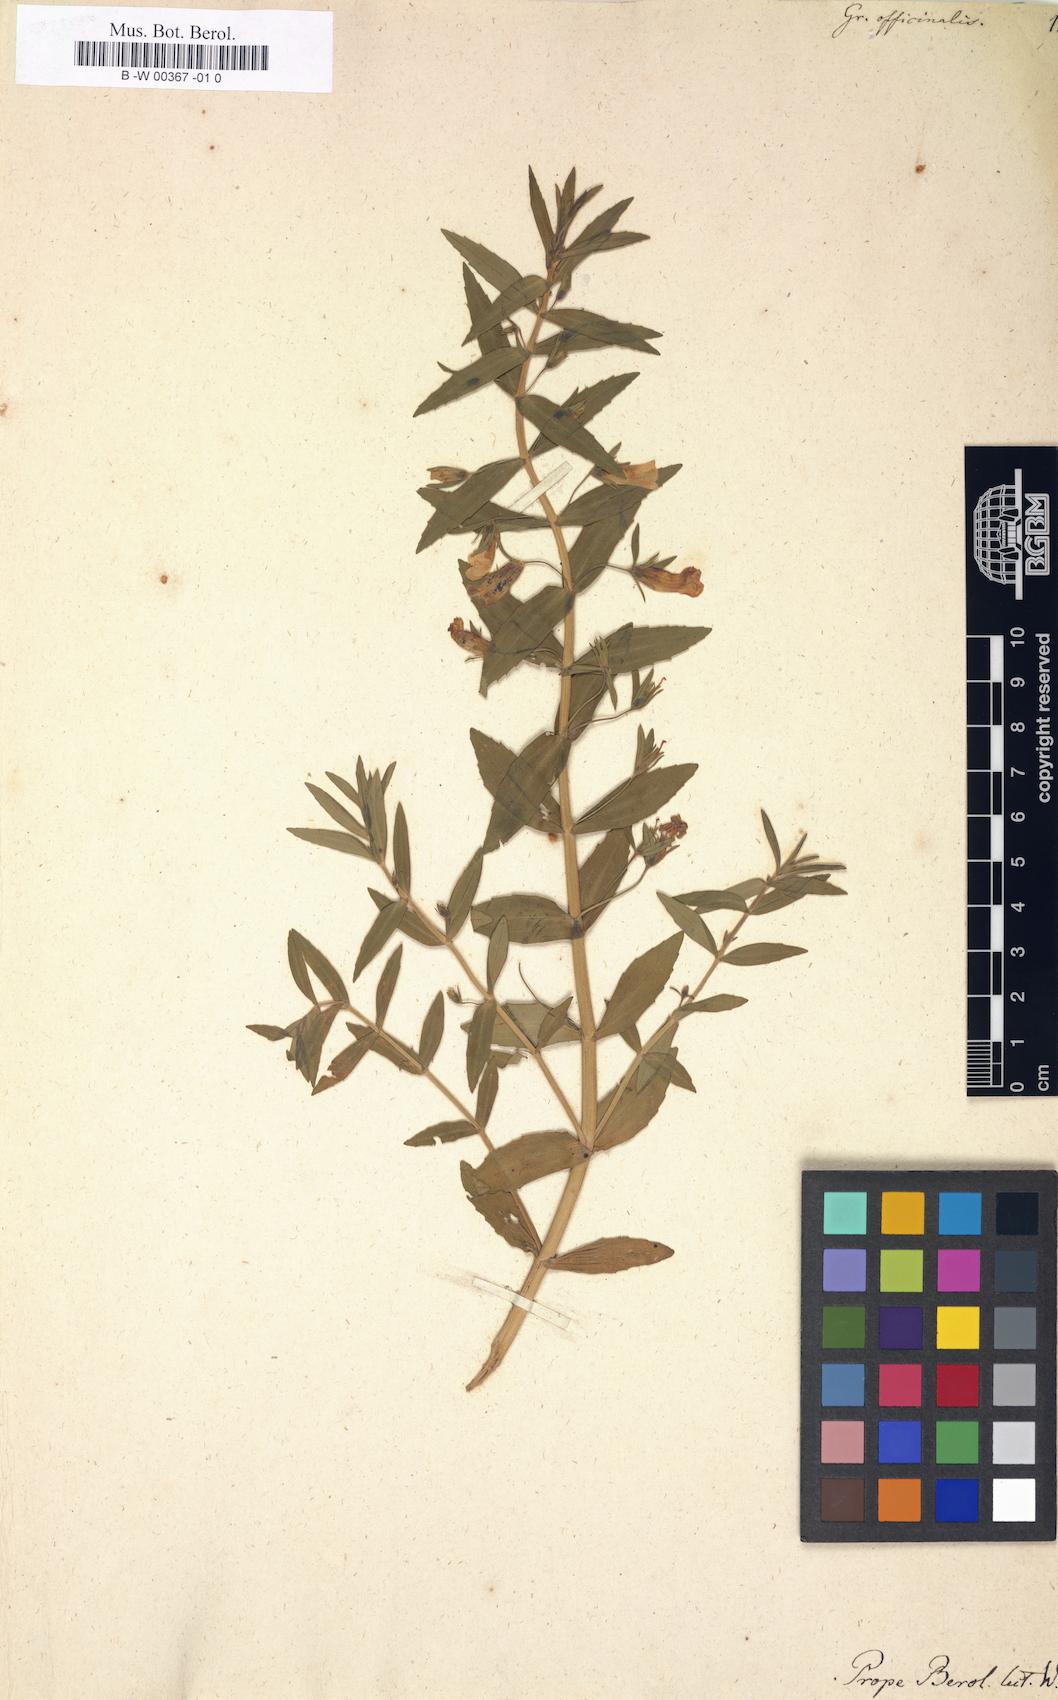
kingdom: Plantae
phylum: Tracheophyta
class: Magnoliopsida
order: Lamiales
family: Plantaginaceae
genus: Gratiola
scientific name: Gratiola officinalis
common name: Gratiola
